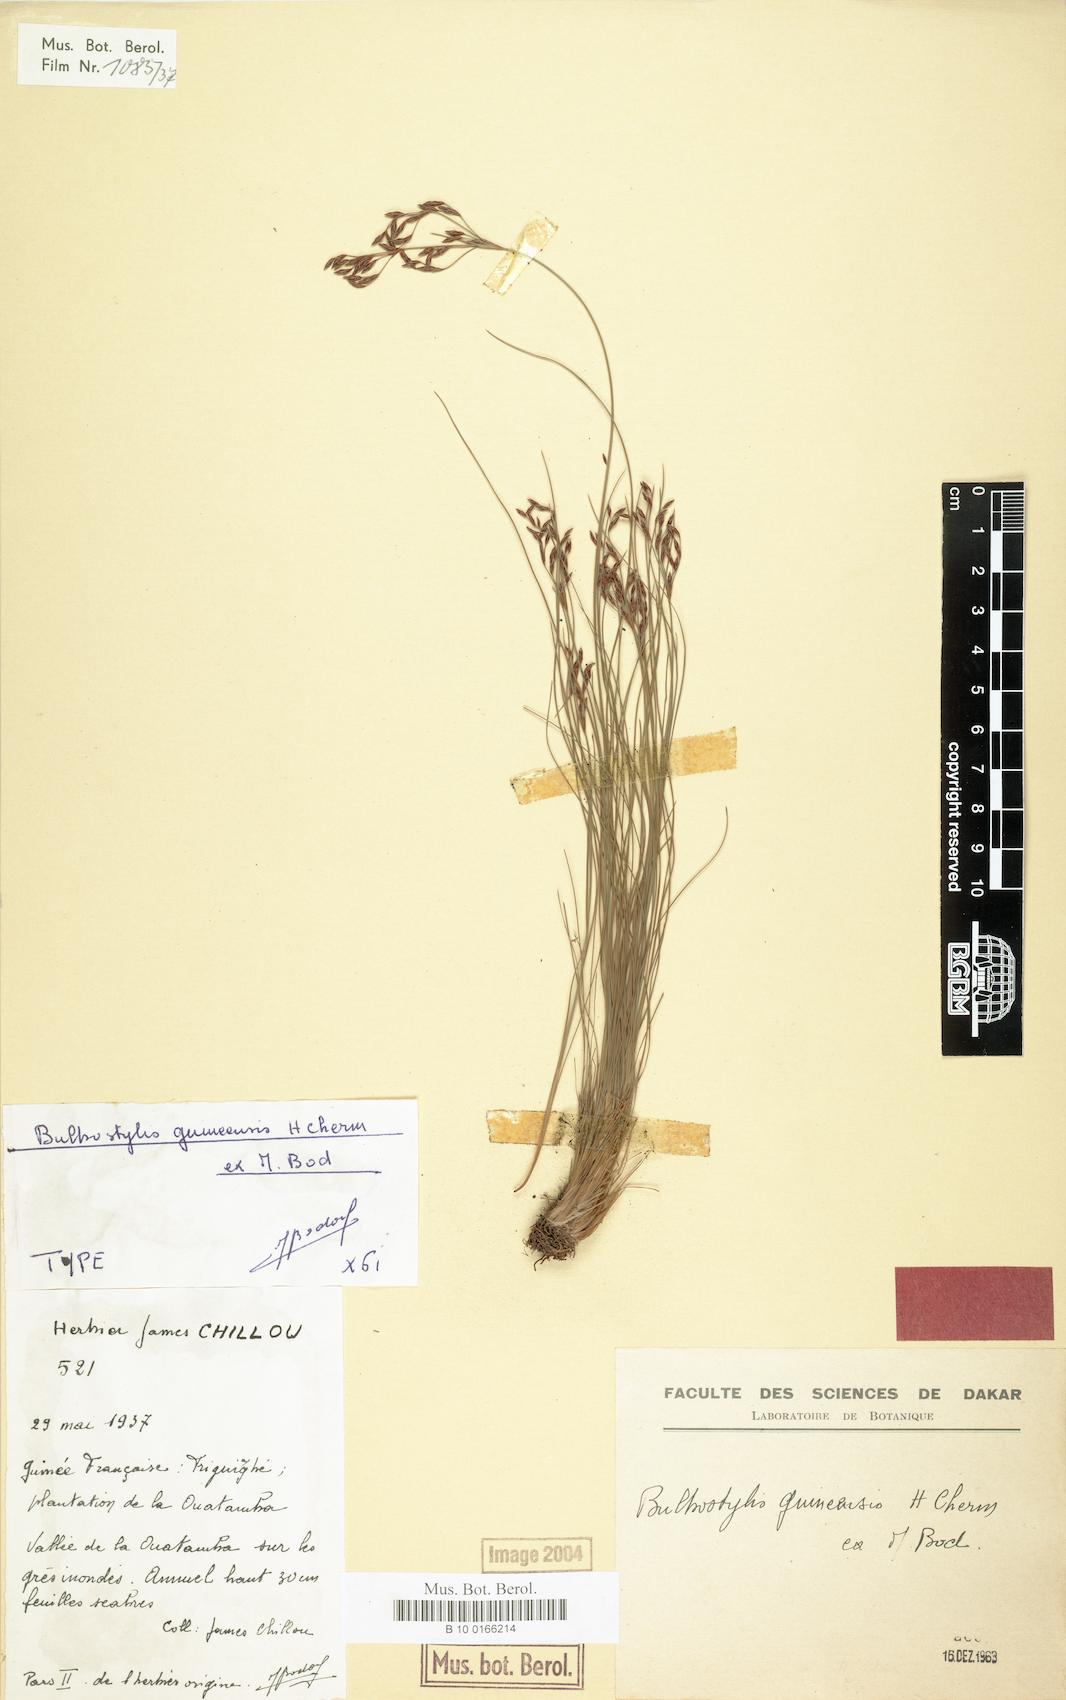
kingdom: Plantae
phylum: Tracheophyta
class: Liliopsida
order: Poales
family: Cyperaceae
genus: Bulbostylis
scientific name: Bulbostylis guineensis
